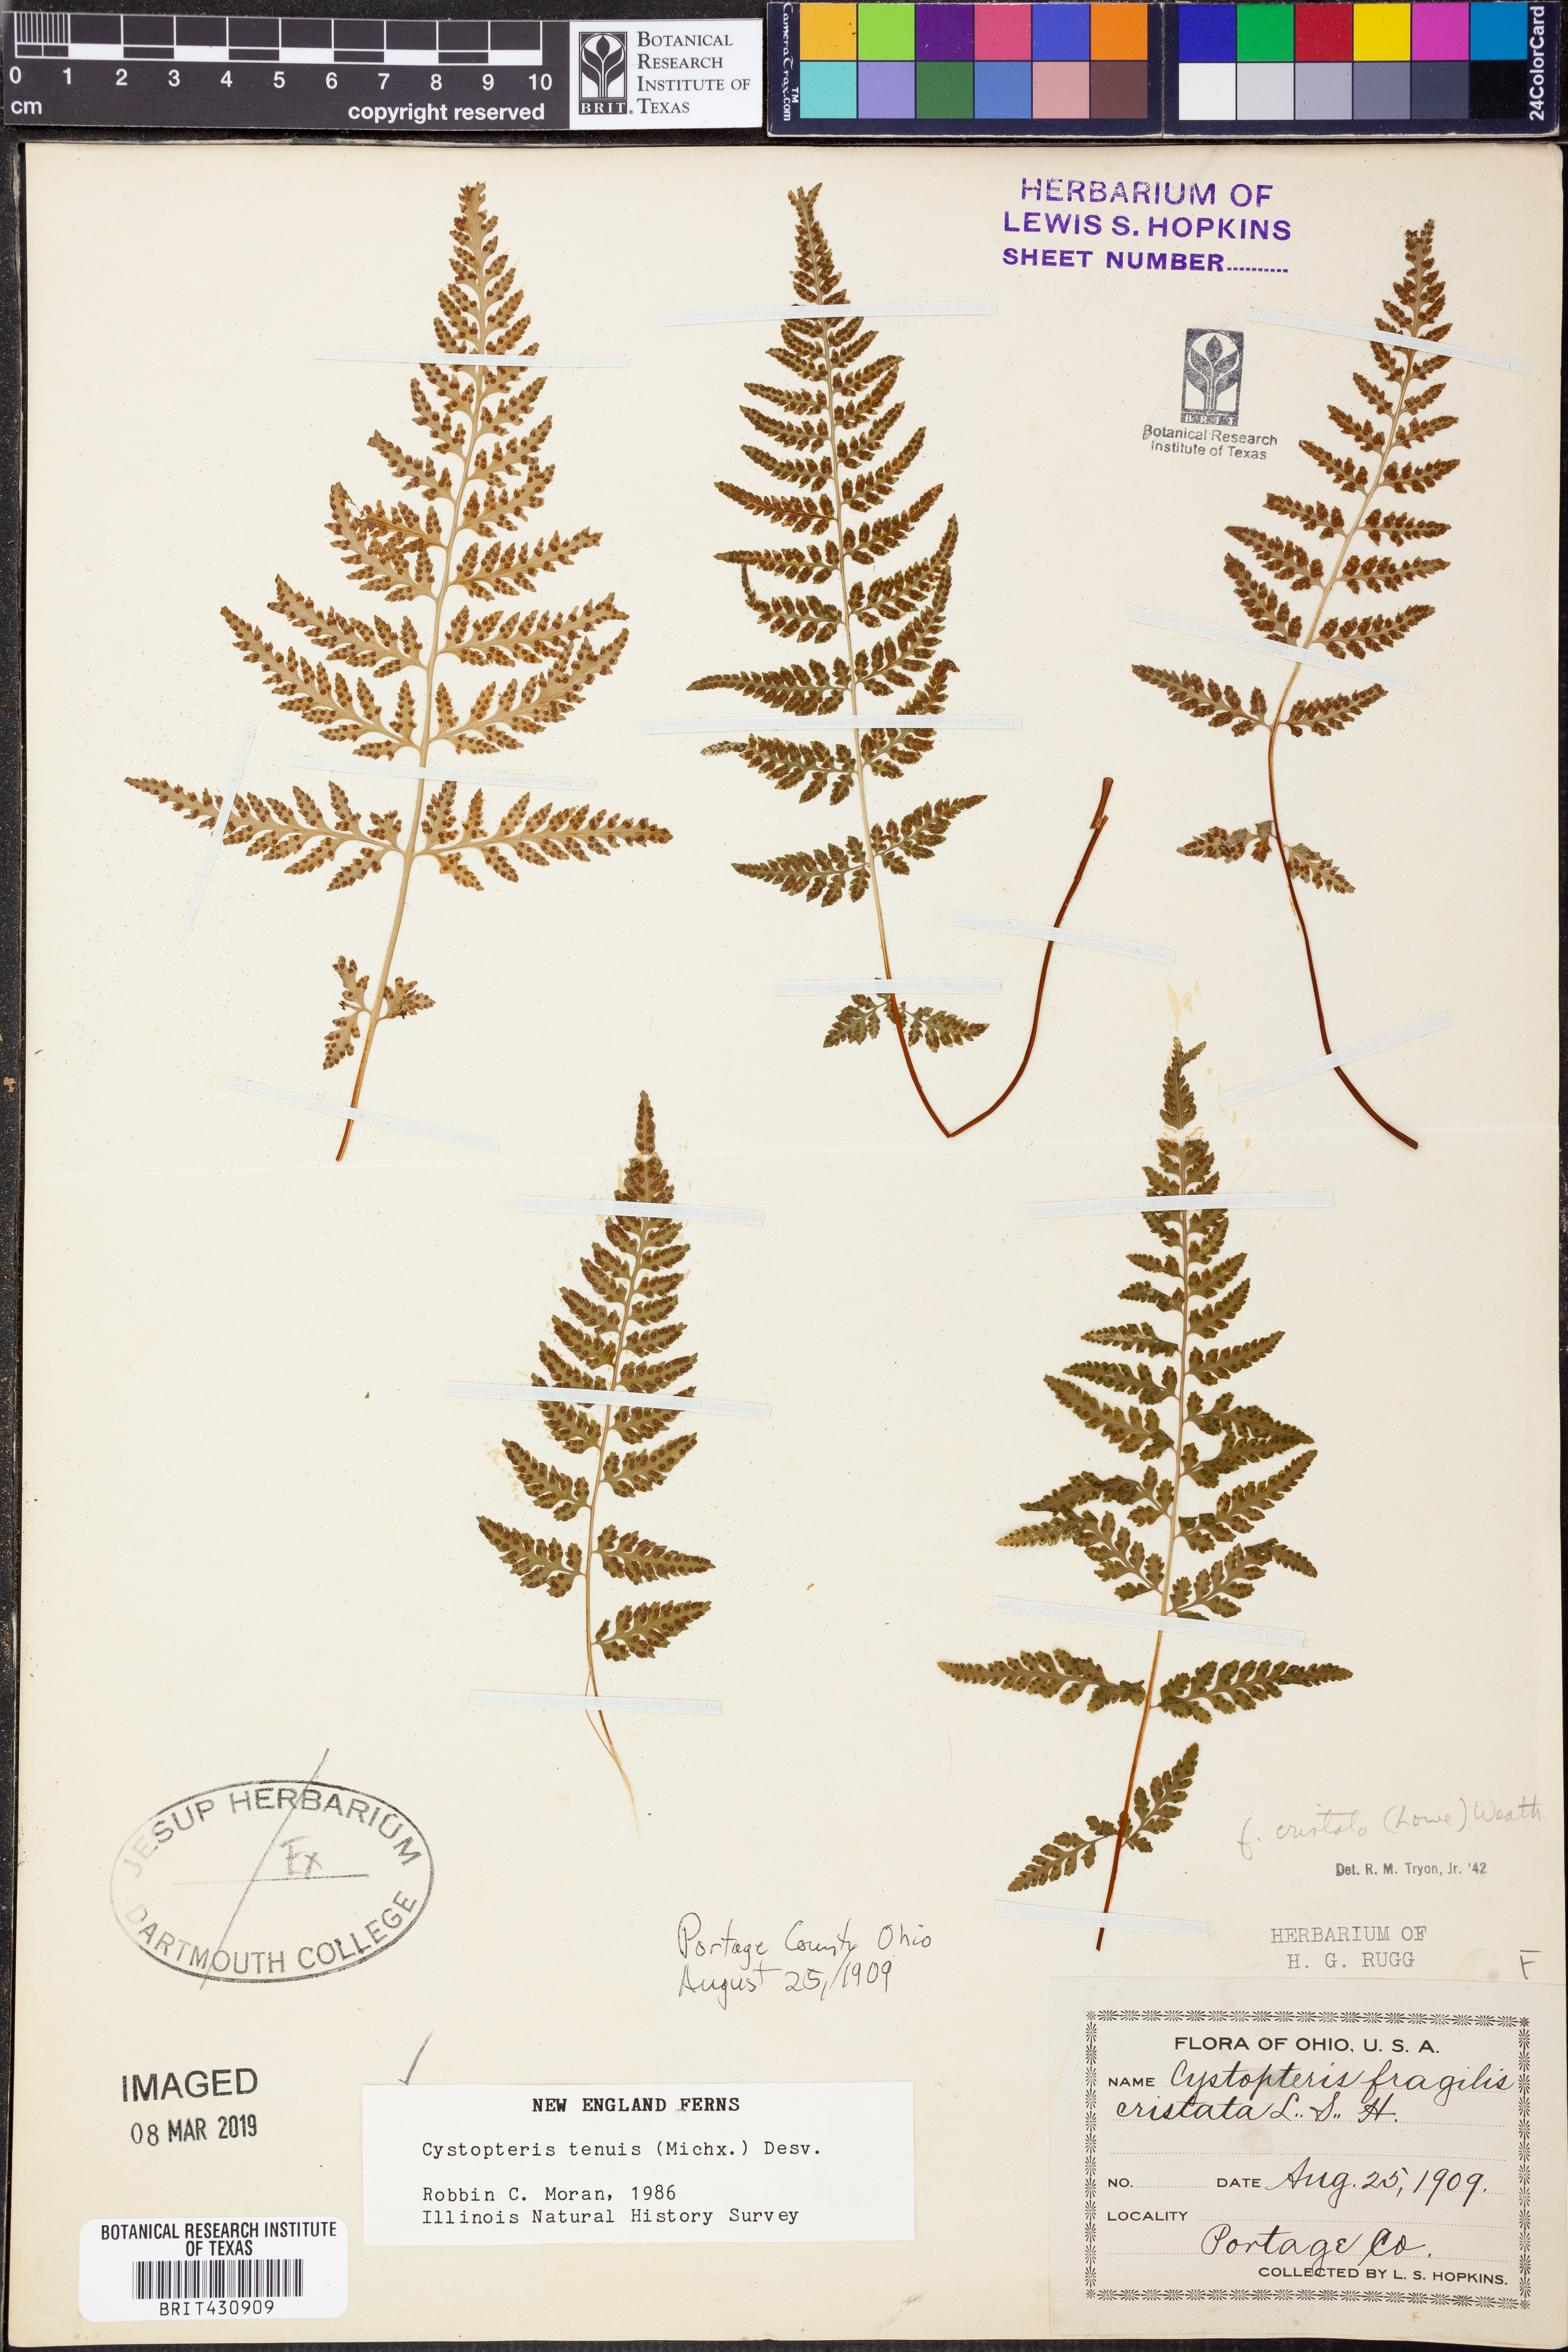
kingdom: Plantae
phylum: Tracheophyta
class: Polypodiopsida
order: Polypodiales
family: Cystopteridaceae
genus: Cystopteris
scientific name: Cystopteris tenuis
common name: Mackay's brittle fern
